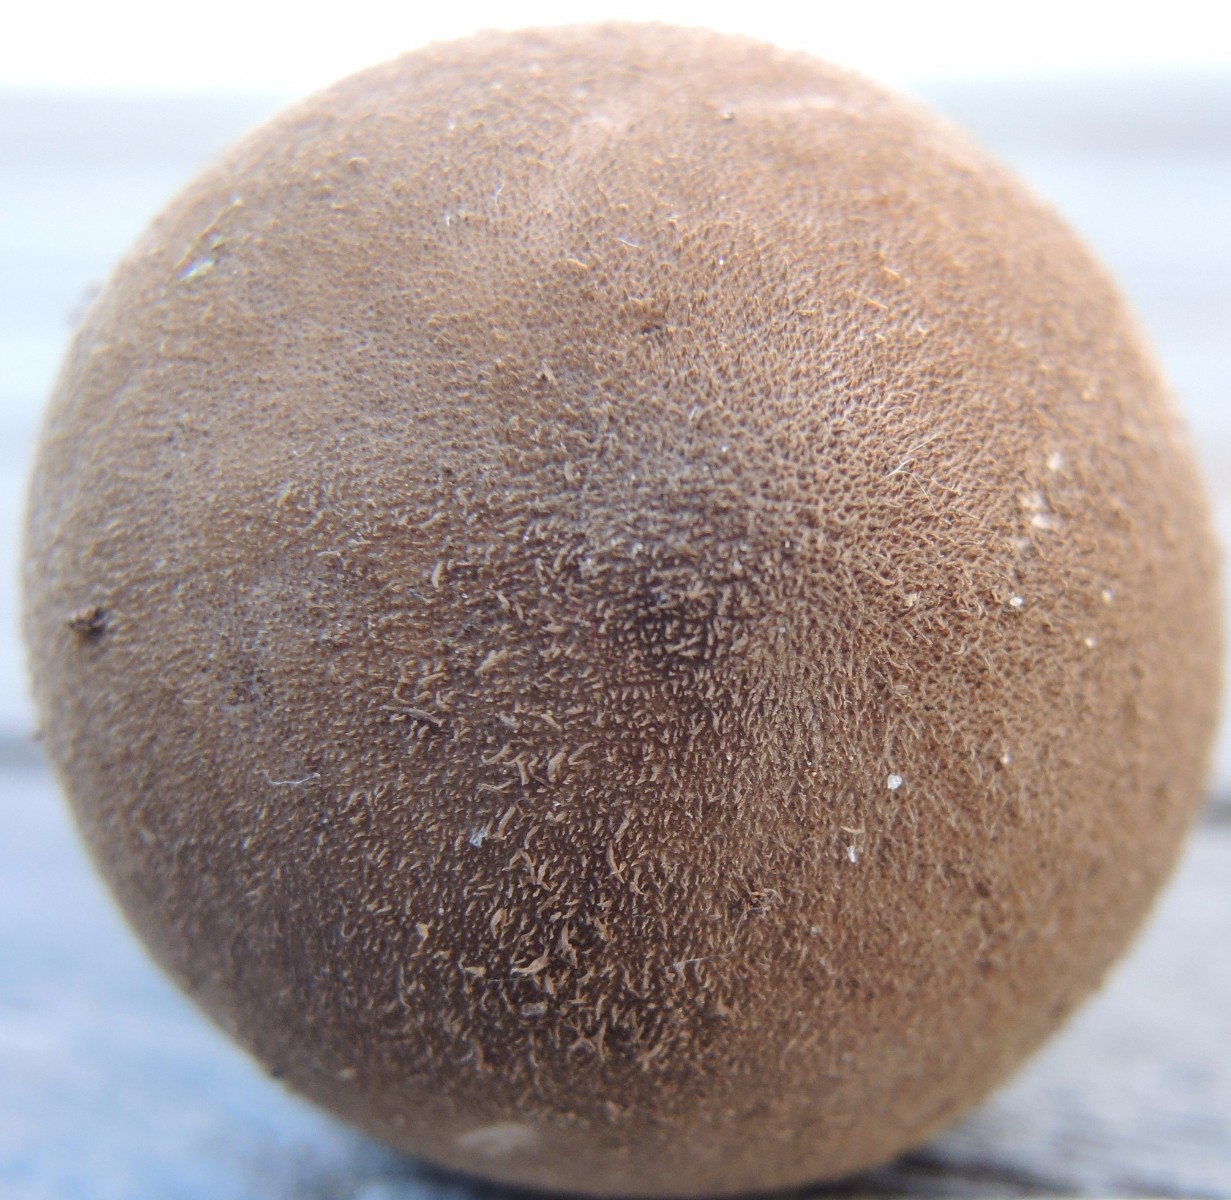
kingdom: Fungi
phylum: Basidiomycota
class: Agaricomycetes
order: Agaricales
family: Lycoperdaceae
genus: Lycoperdon
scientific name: Lycoperdon umbrinum
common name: umbrabrun støvbold
